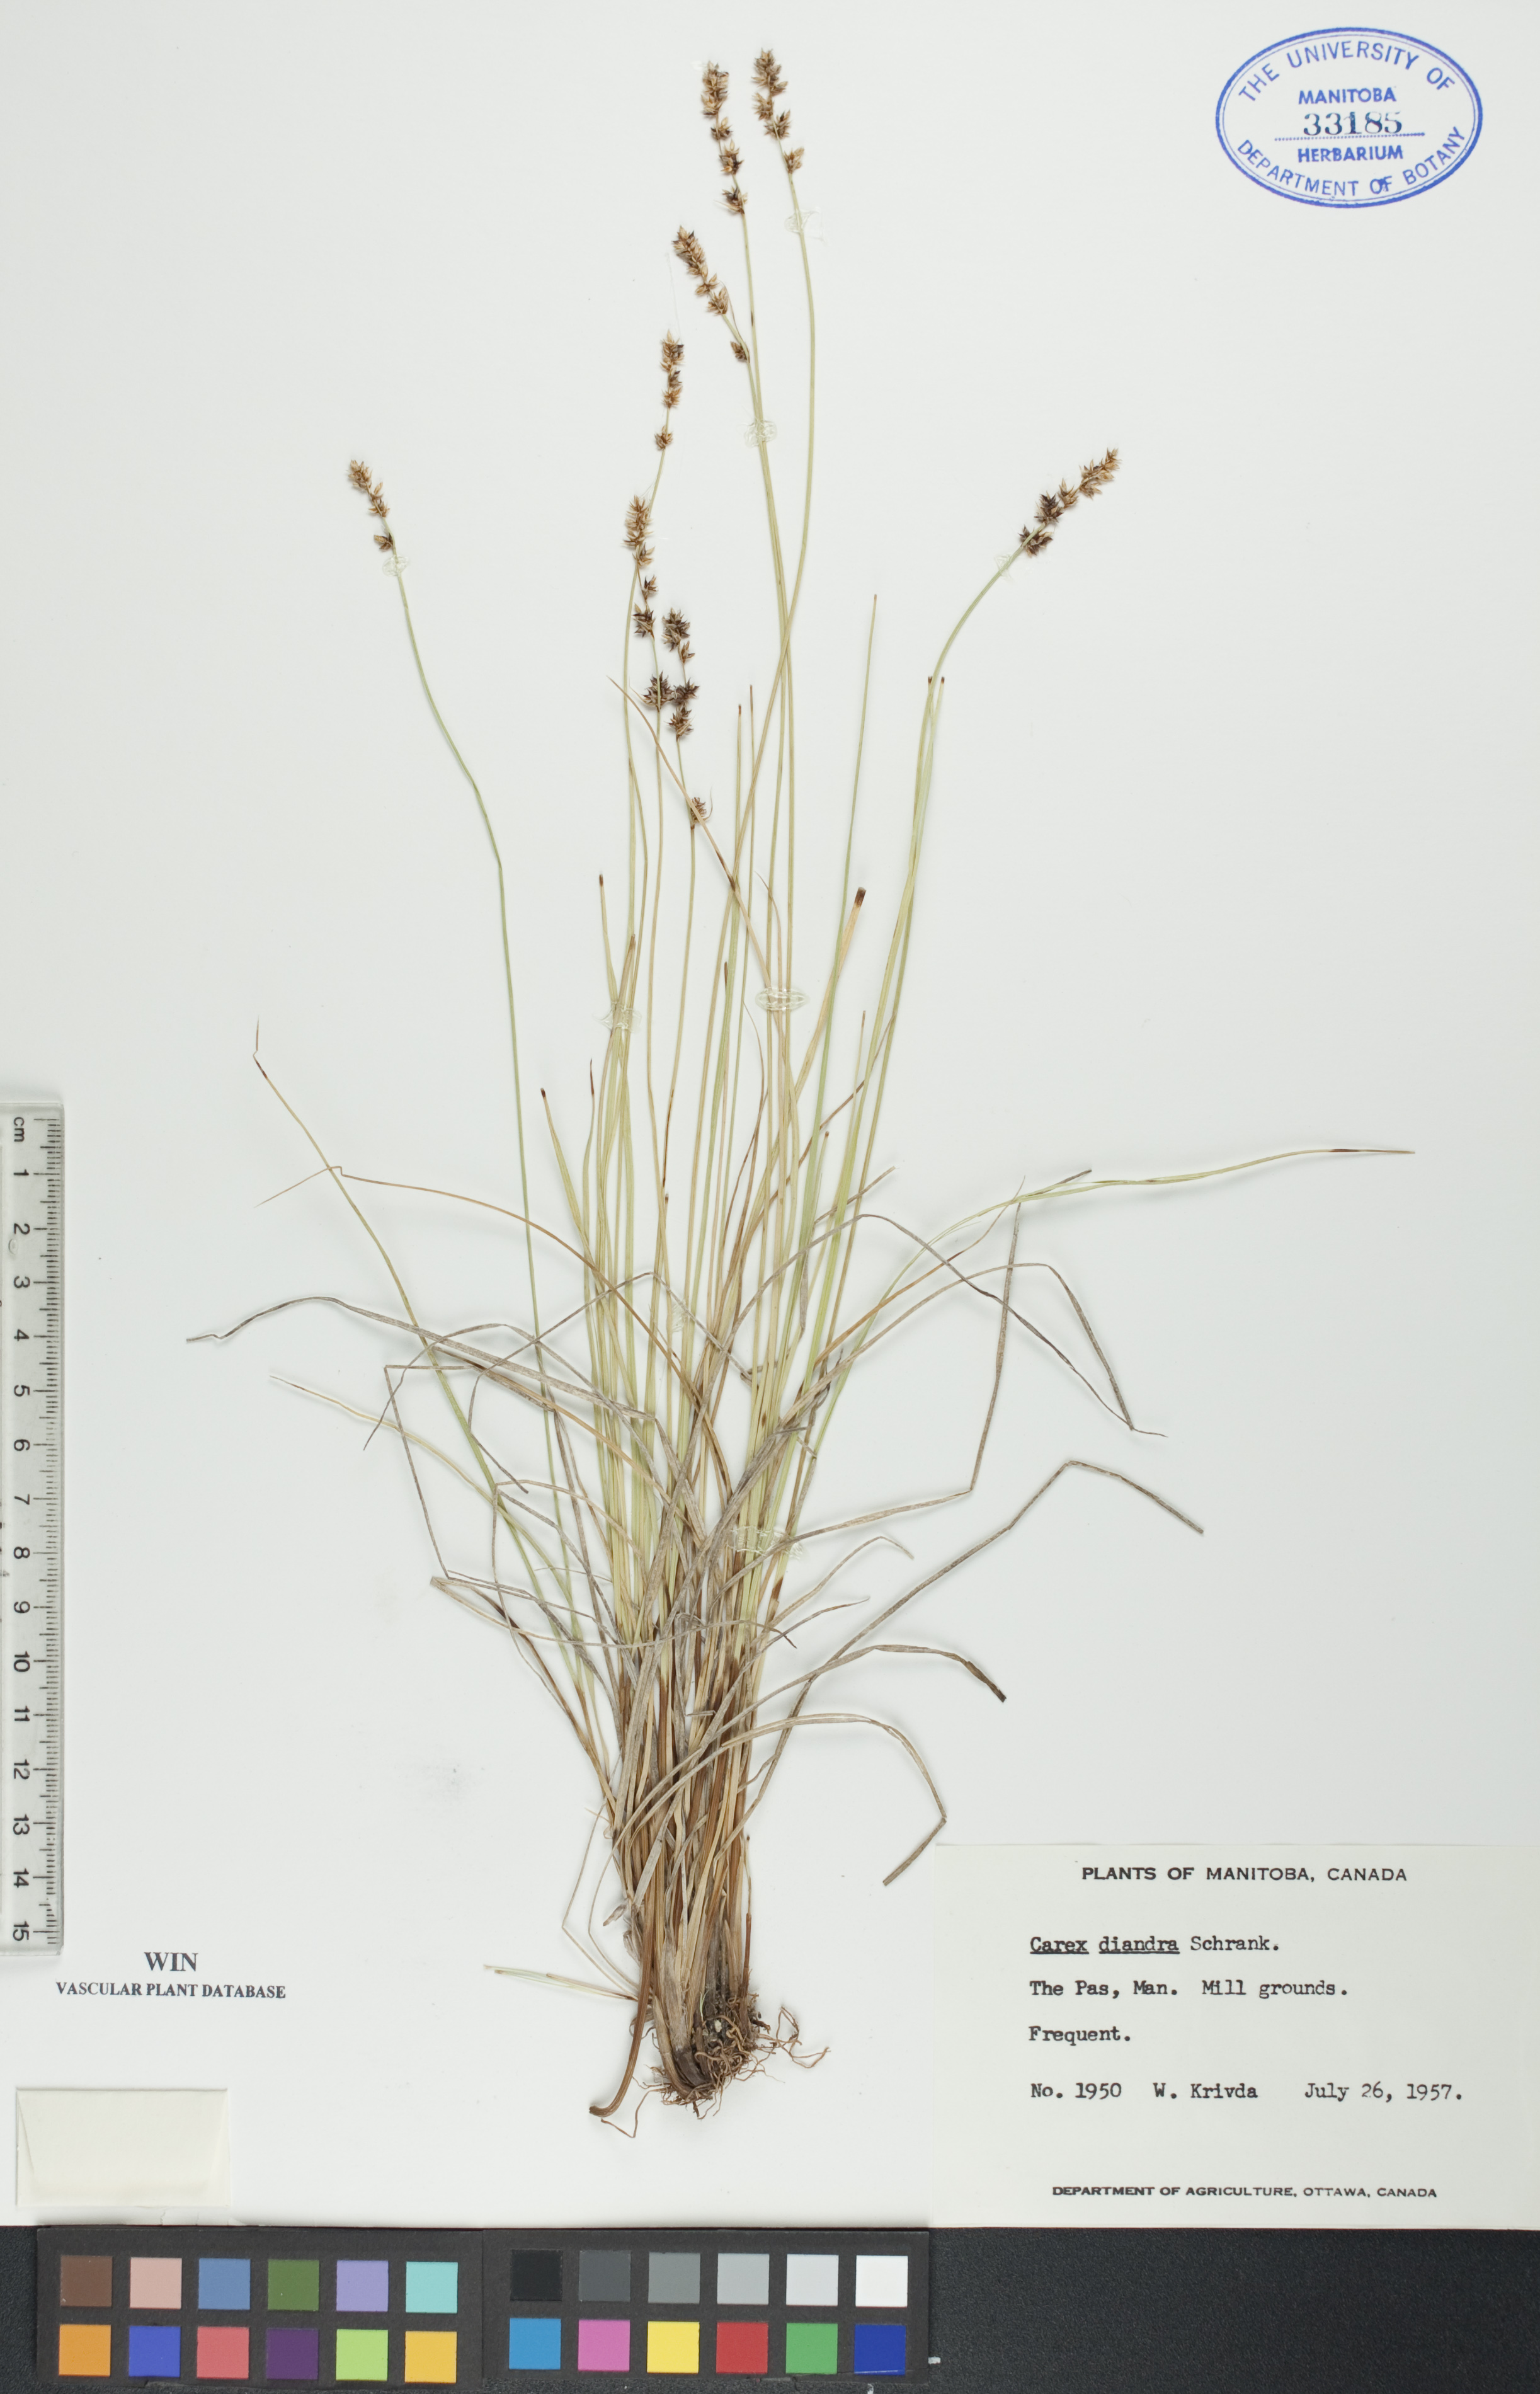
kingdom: Plantae
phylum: Tracheophyta
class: Liliopsida
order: Poales
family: Cyperaceae
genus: Carex
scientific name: Carex diandra
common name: Lesser tussock-sedge
